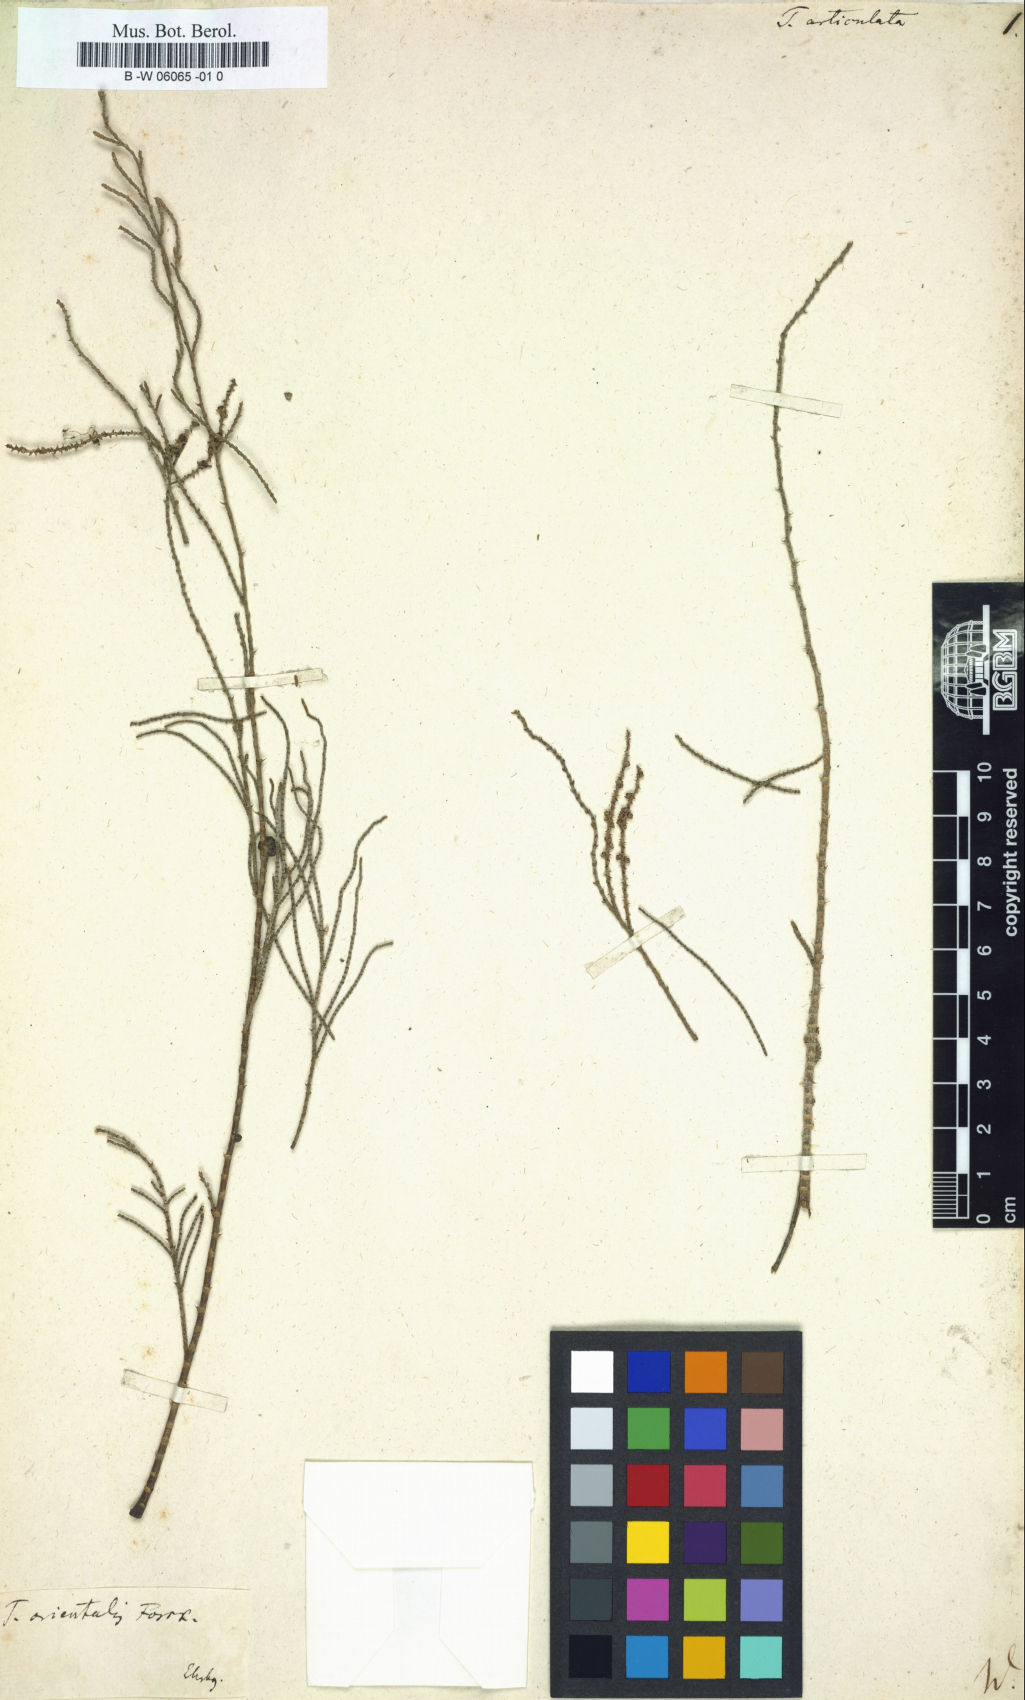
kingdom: Plantae
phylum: Tracheophyta
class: Magnoliopsida
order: Caryophyllales
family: Tamaricaceae
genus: Tamarix
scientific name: Tamarix aphylla
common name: Athel tamarisk
